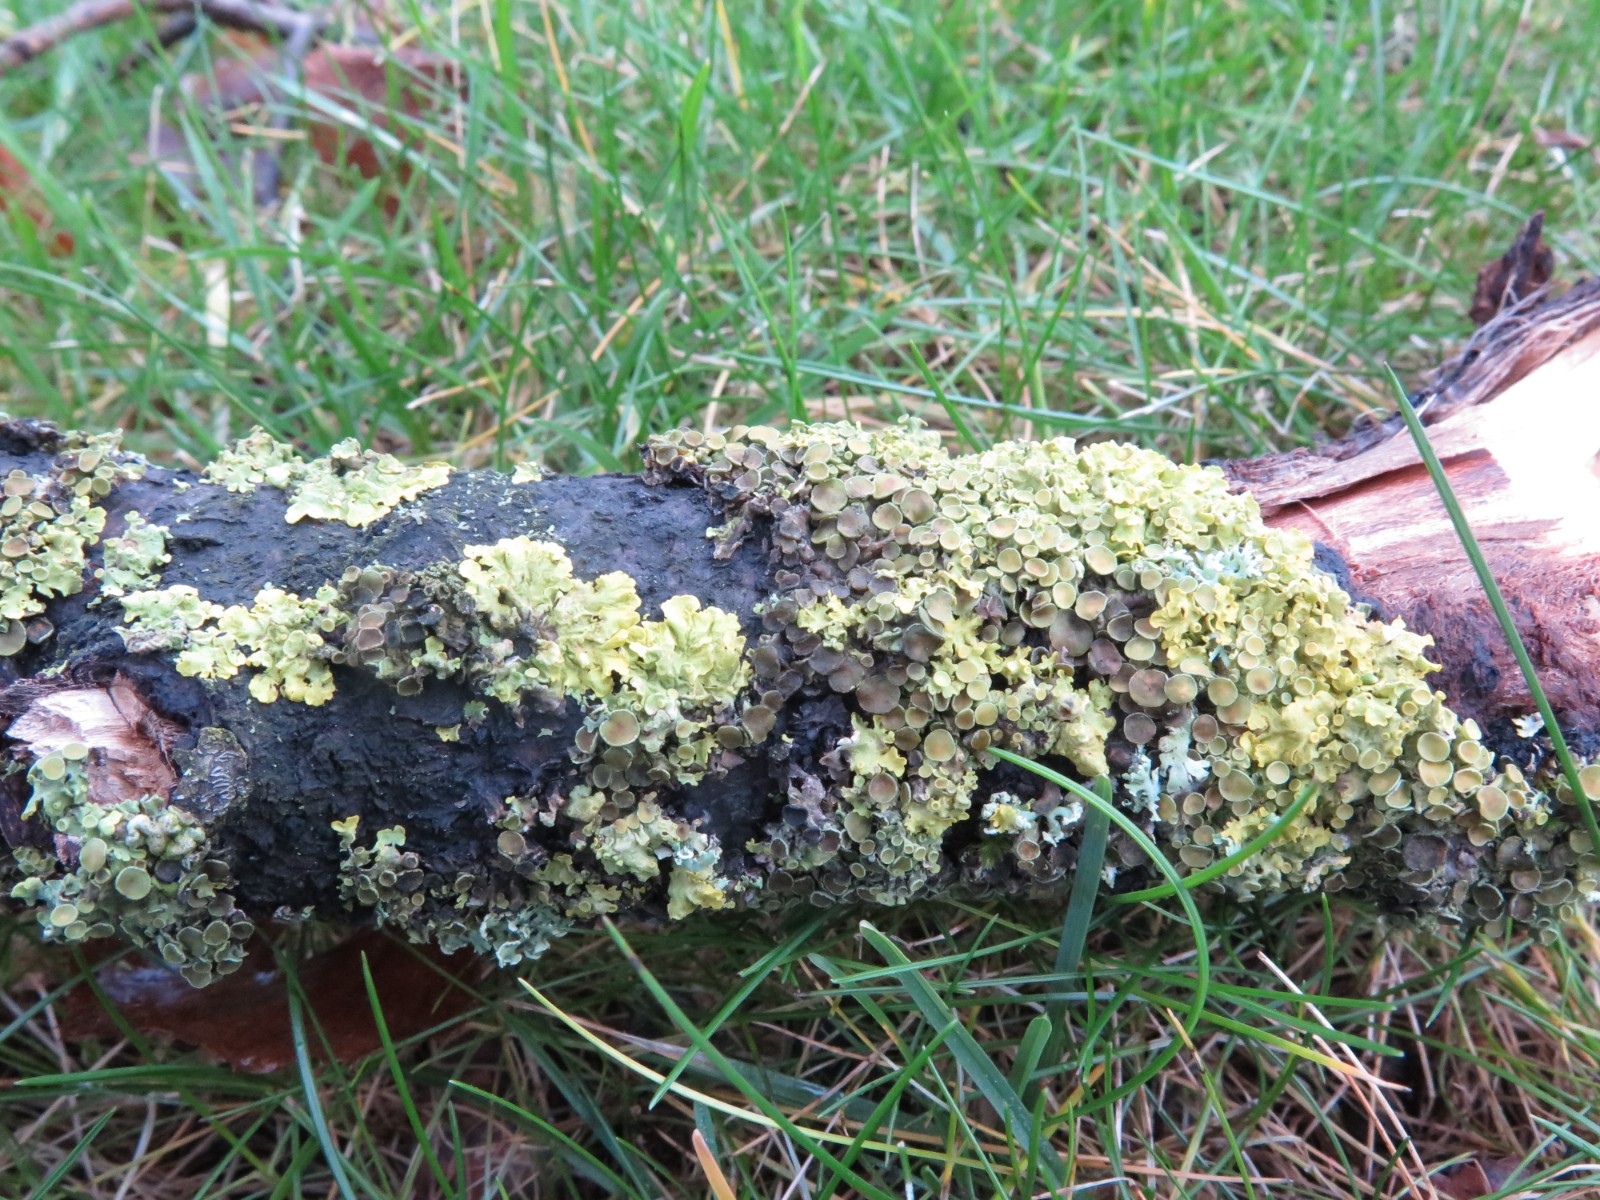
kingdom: Fungi
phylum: Ascomycota
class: Dothideomycetes
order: Mycosphaerellales
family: Teratosphaeriaceae
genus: Xanthoriicola
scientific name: Xanthoriicola physciae
